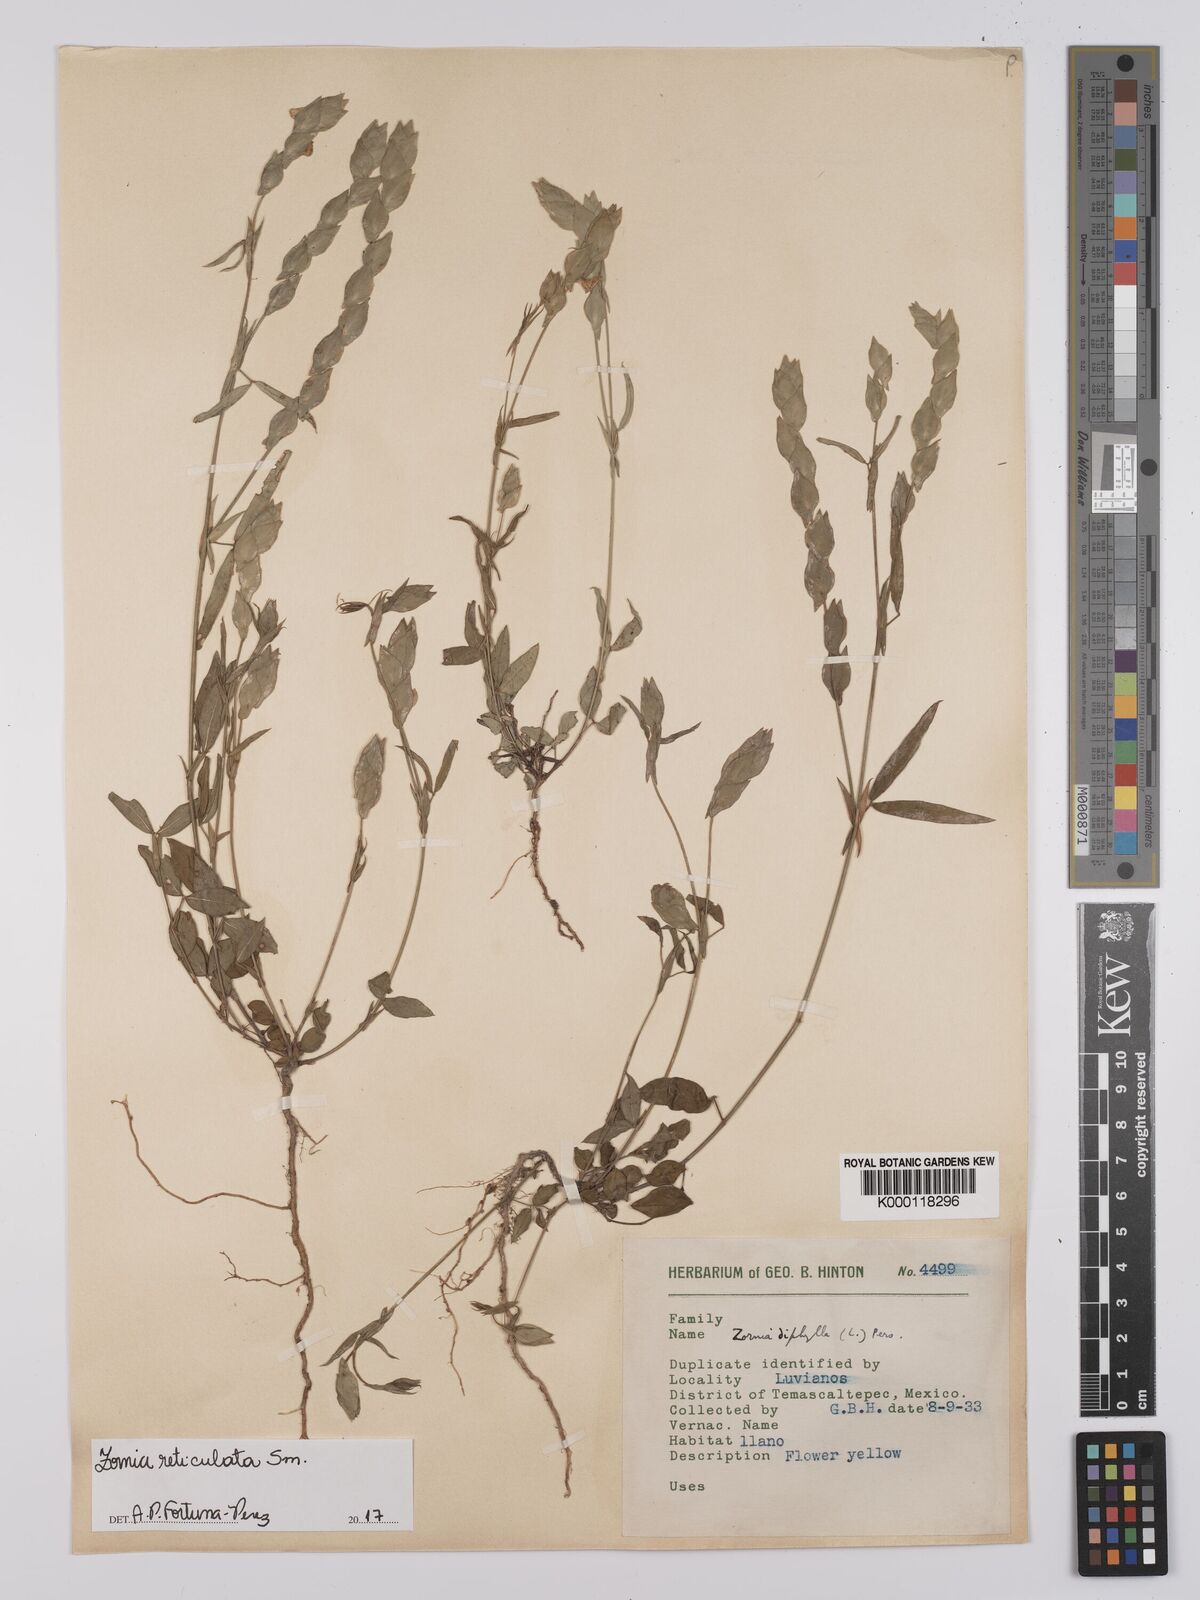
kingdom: Plantae
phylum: Tracheophyta
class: Magnoliopsida
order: Fabales
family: Fabaceae
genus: Zornia
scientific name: Zornia reticulata
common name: Reticulate viperina
